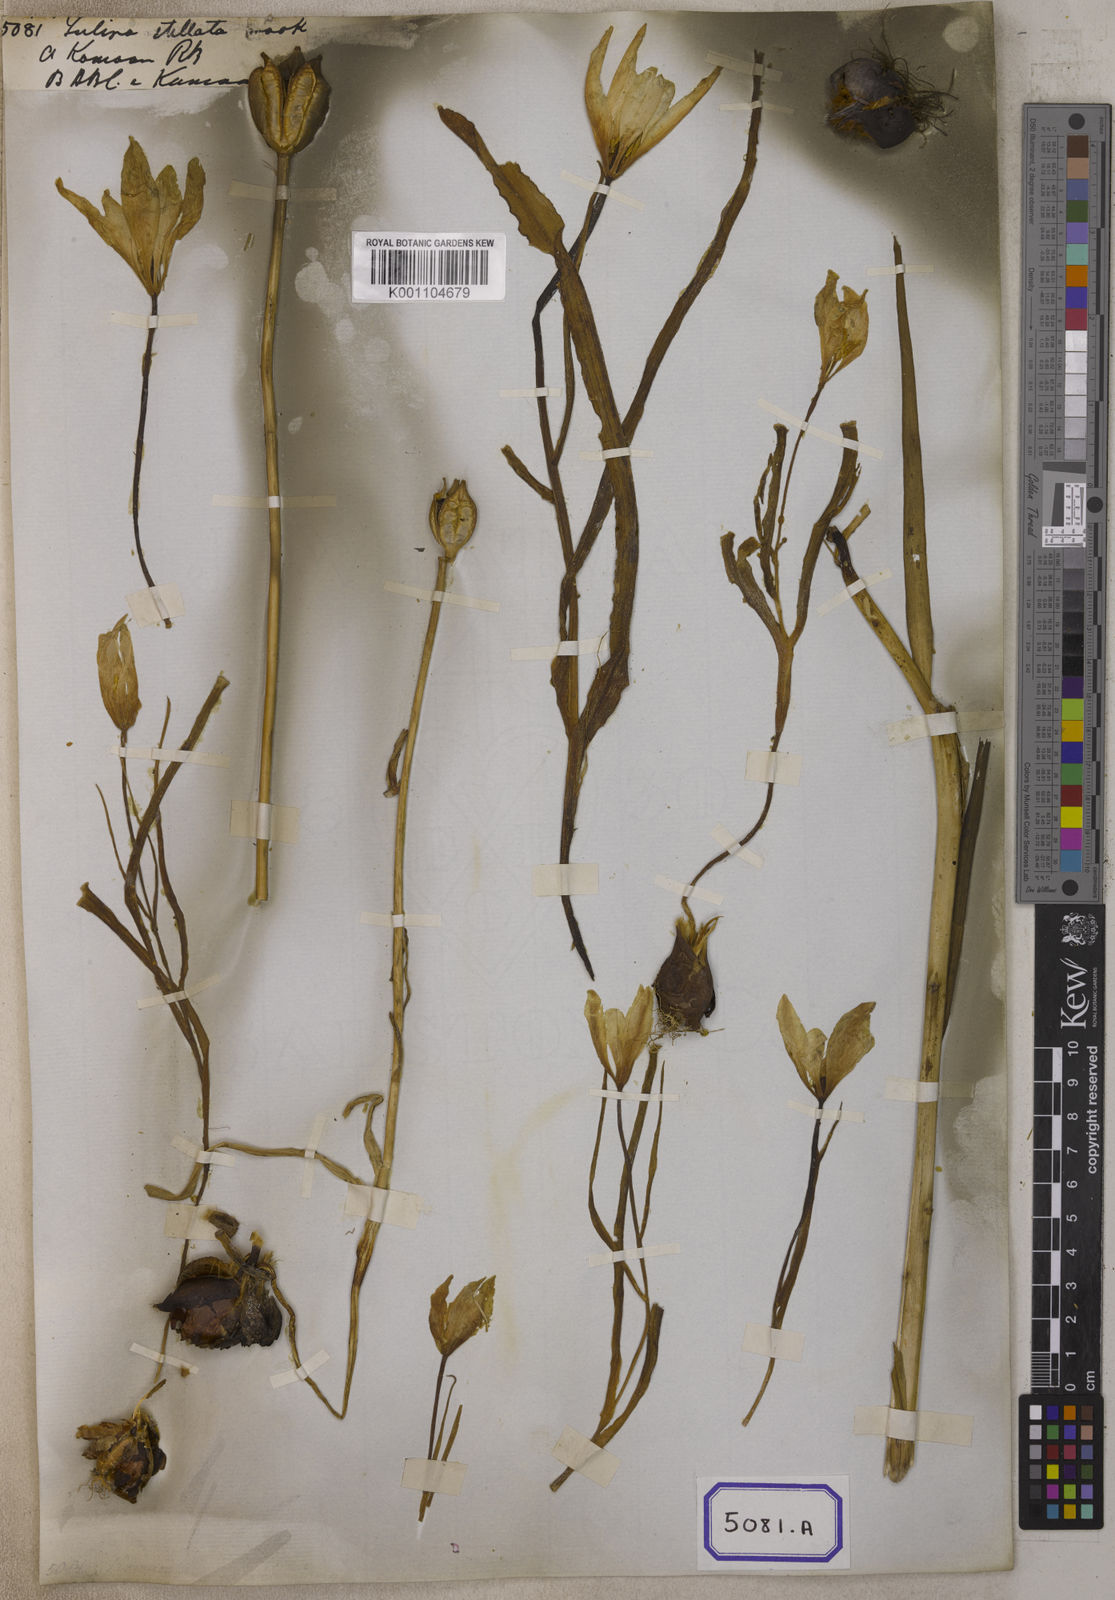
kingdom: Plantae
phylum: Tracheophyta
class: Liliopsida
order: Liliales
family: Liliaceae
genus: Tulipa
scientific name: Tulipa clusiana
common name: Lady tulip
